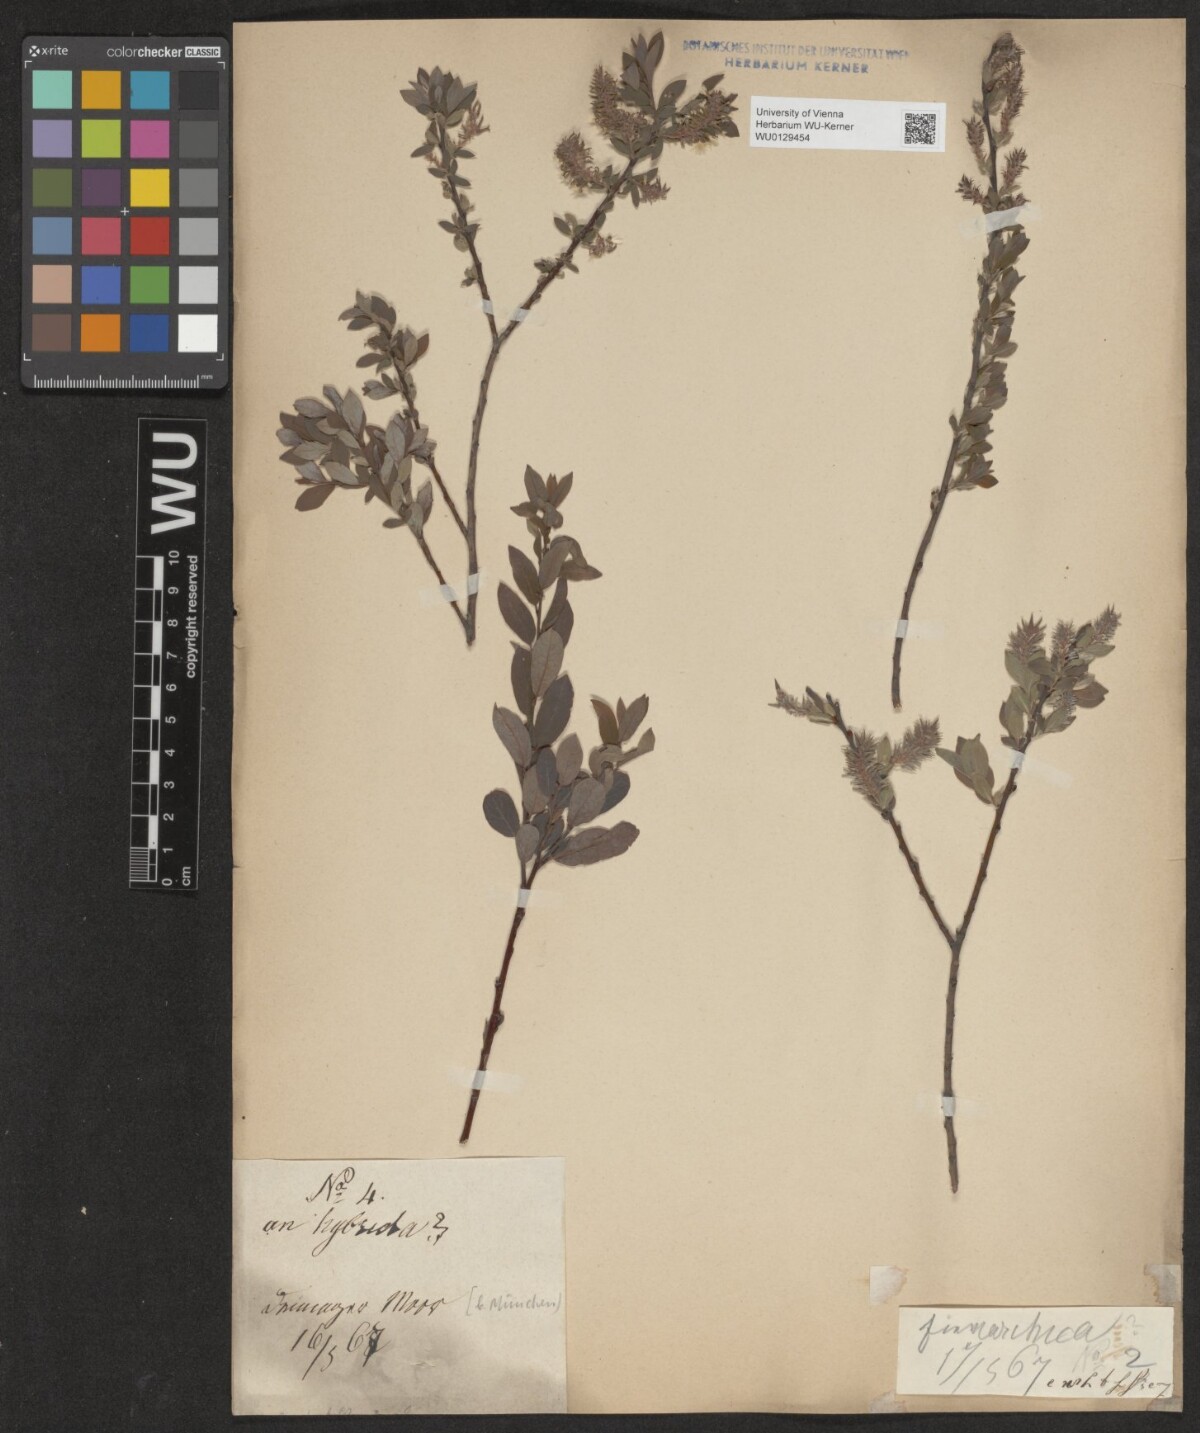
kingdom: Plantae
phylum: Tracheophyta
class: Magnoliopsida
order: Malpighiales
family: Salicaceae
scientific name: Salicaceae
